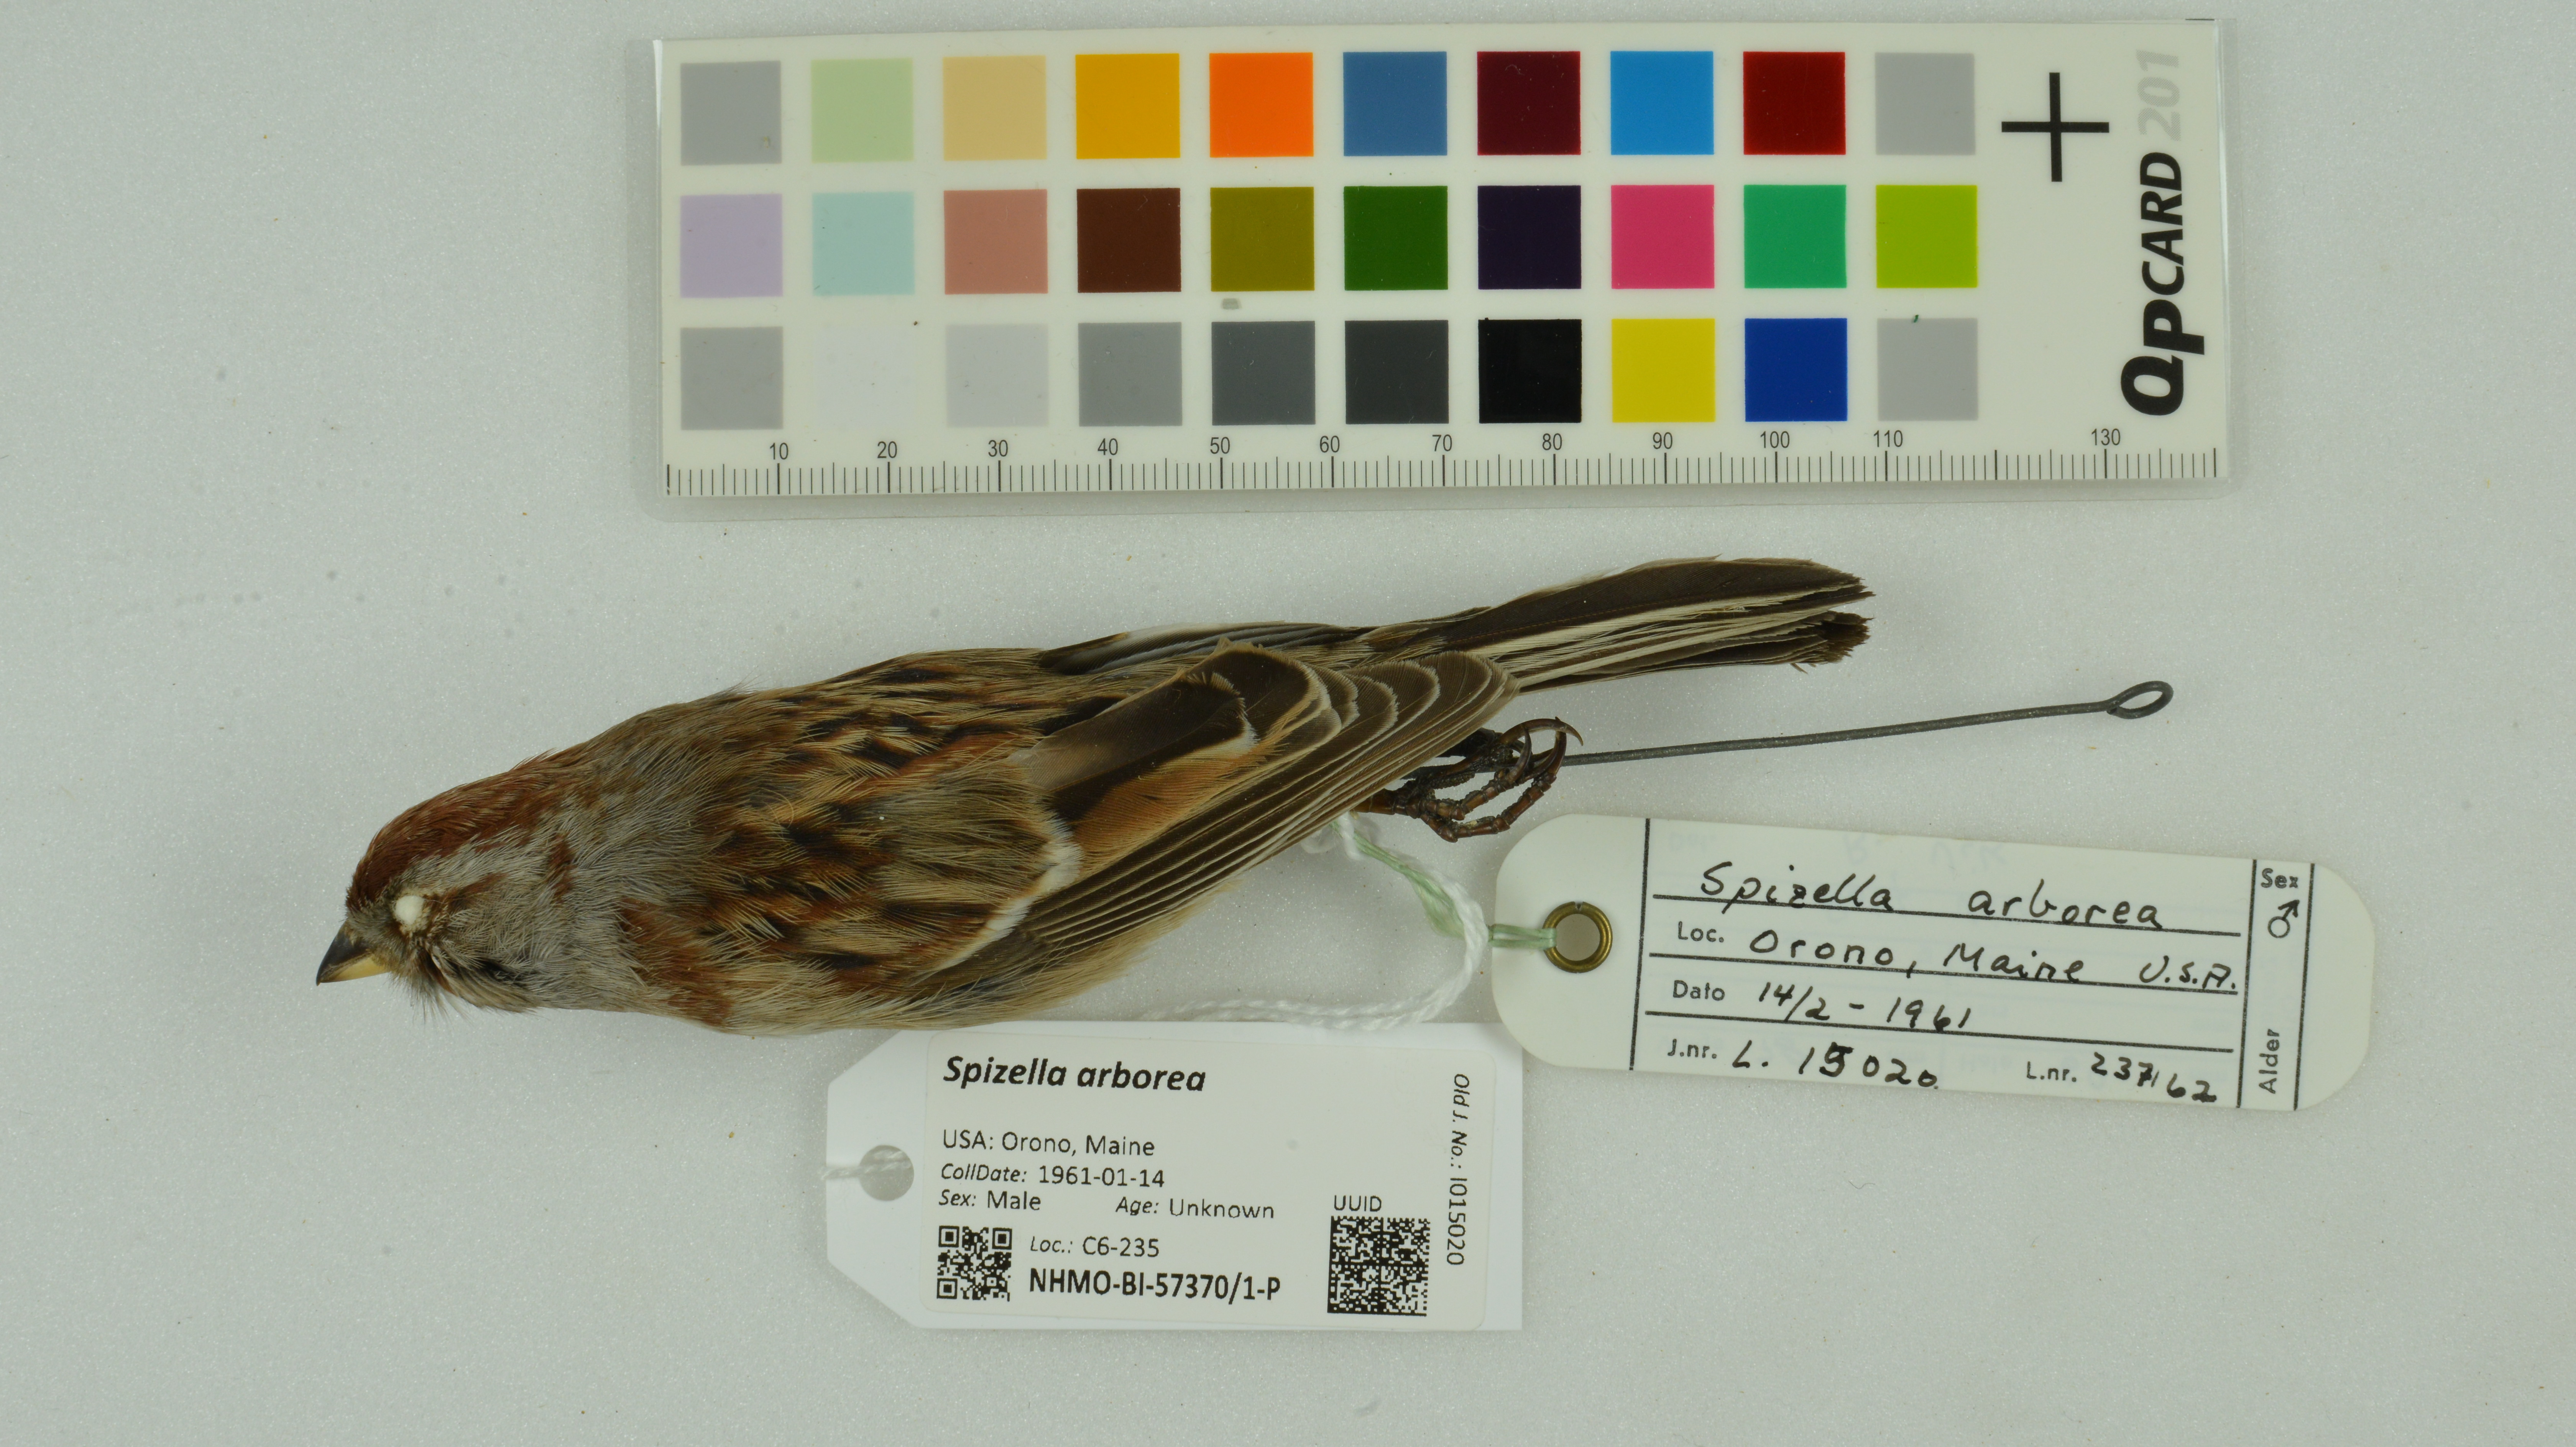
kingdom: Animalia
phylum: Chordata
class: Aves
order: Passeriformes
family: Passerellidae
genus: Spizelloides
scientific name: Spizelloides arborea
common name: American tree sparrow
